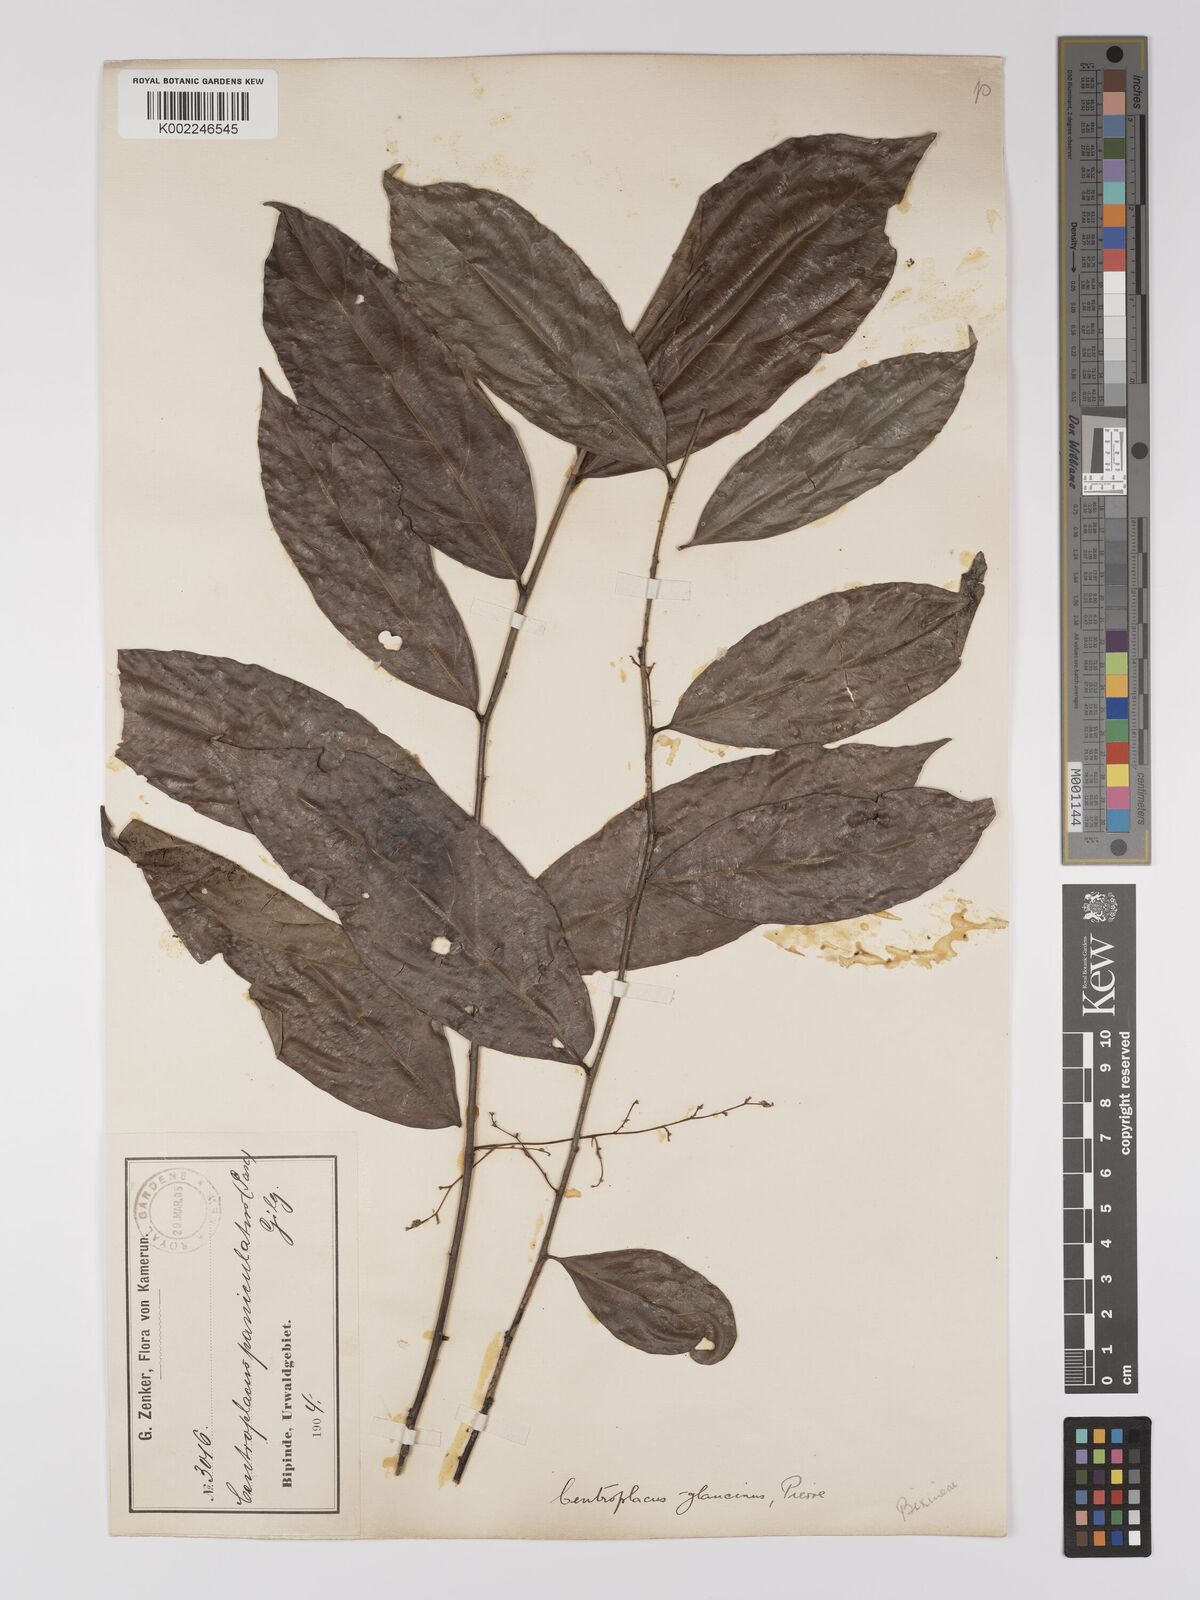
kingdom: Plantae
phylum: Tracheophyta
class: Magnoliopsida
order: Malpighiales
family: Centroplacaceae
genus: Centroplacus
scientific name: Centroplacus glaucinus
